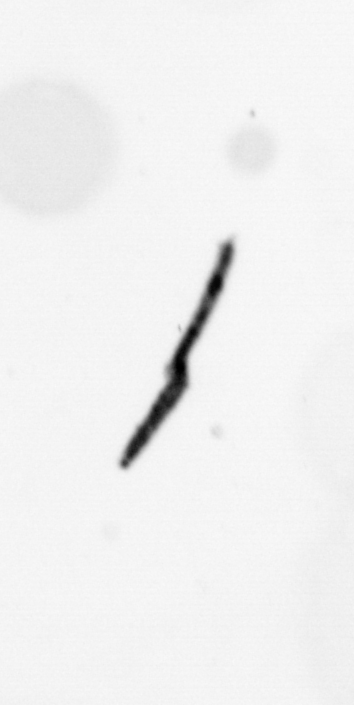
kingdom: Bacteria
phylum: Cyanobacteria
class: Cyanobacteriia
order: Cyanobacteriales
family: Microcoleaceae
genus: Trichodesmium
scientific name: Trichodesmium
